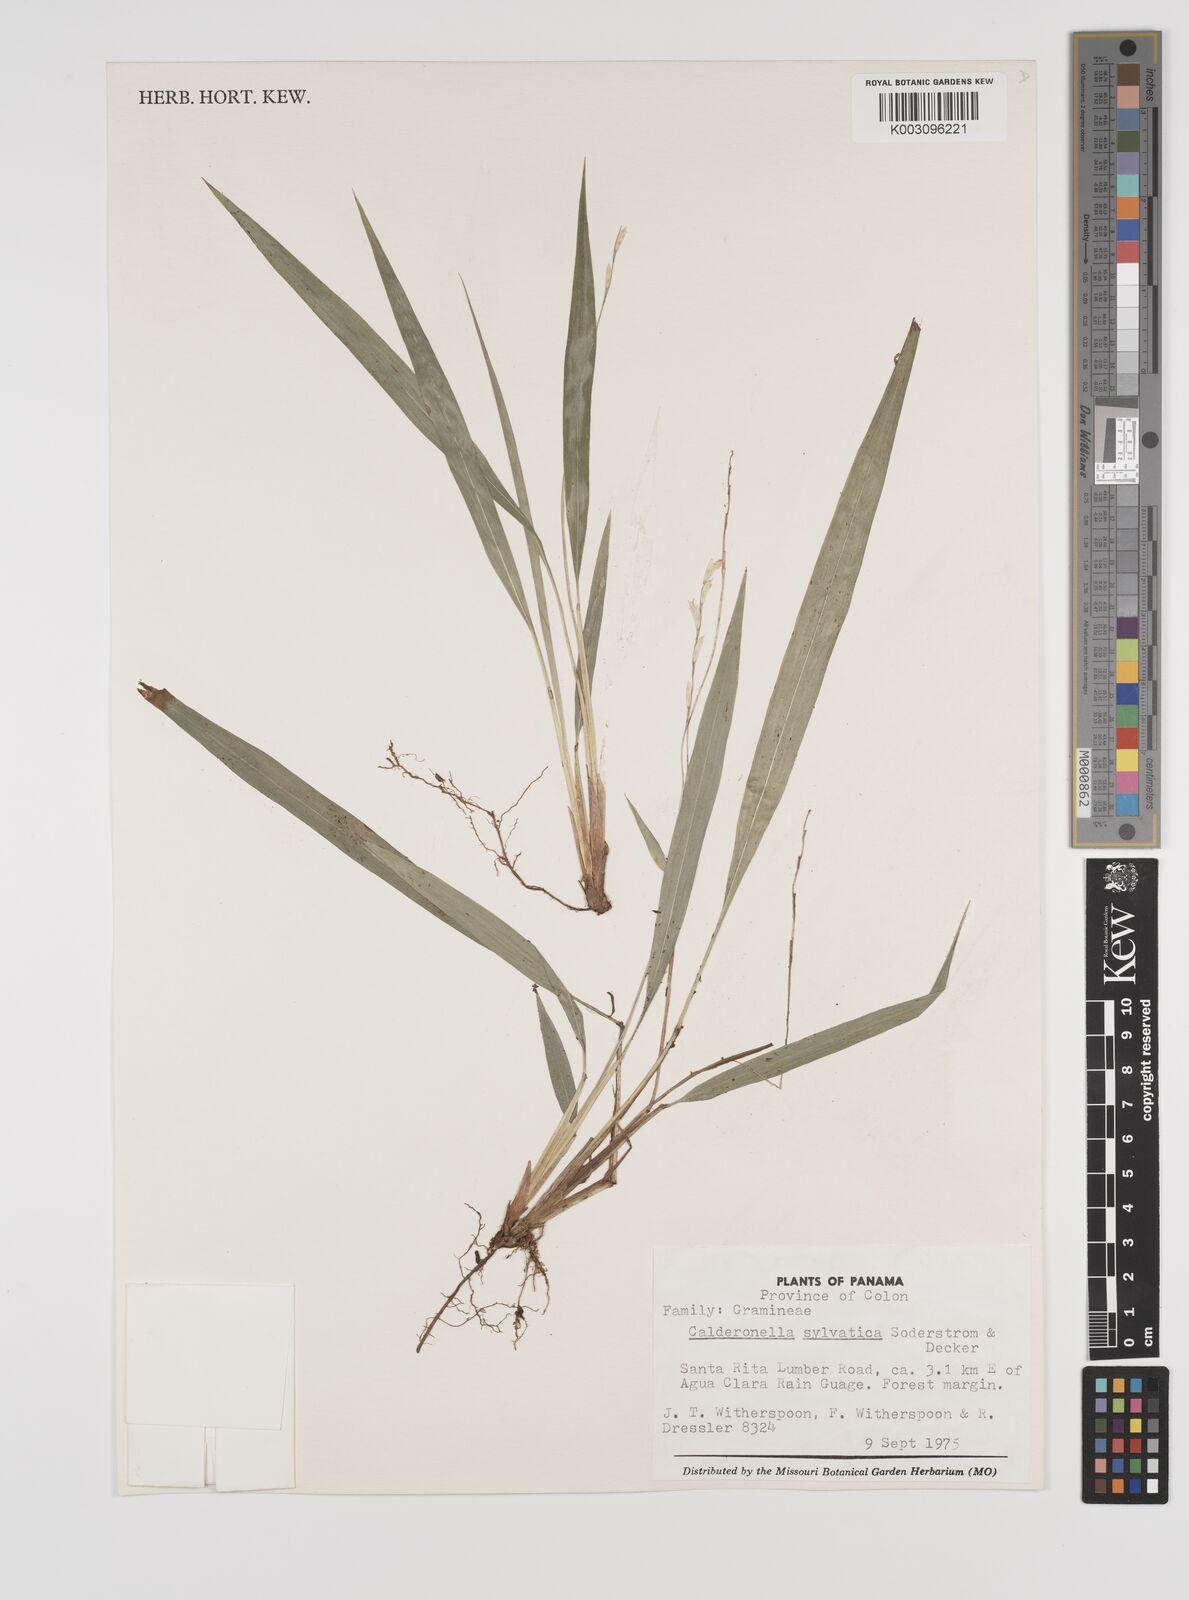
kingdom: Plantae
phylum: Tracheophyta
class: Liliopsida
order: Poales
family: Poaceae
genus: Zeugites
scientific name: Zeugites sylvaticus
